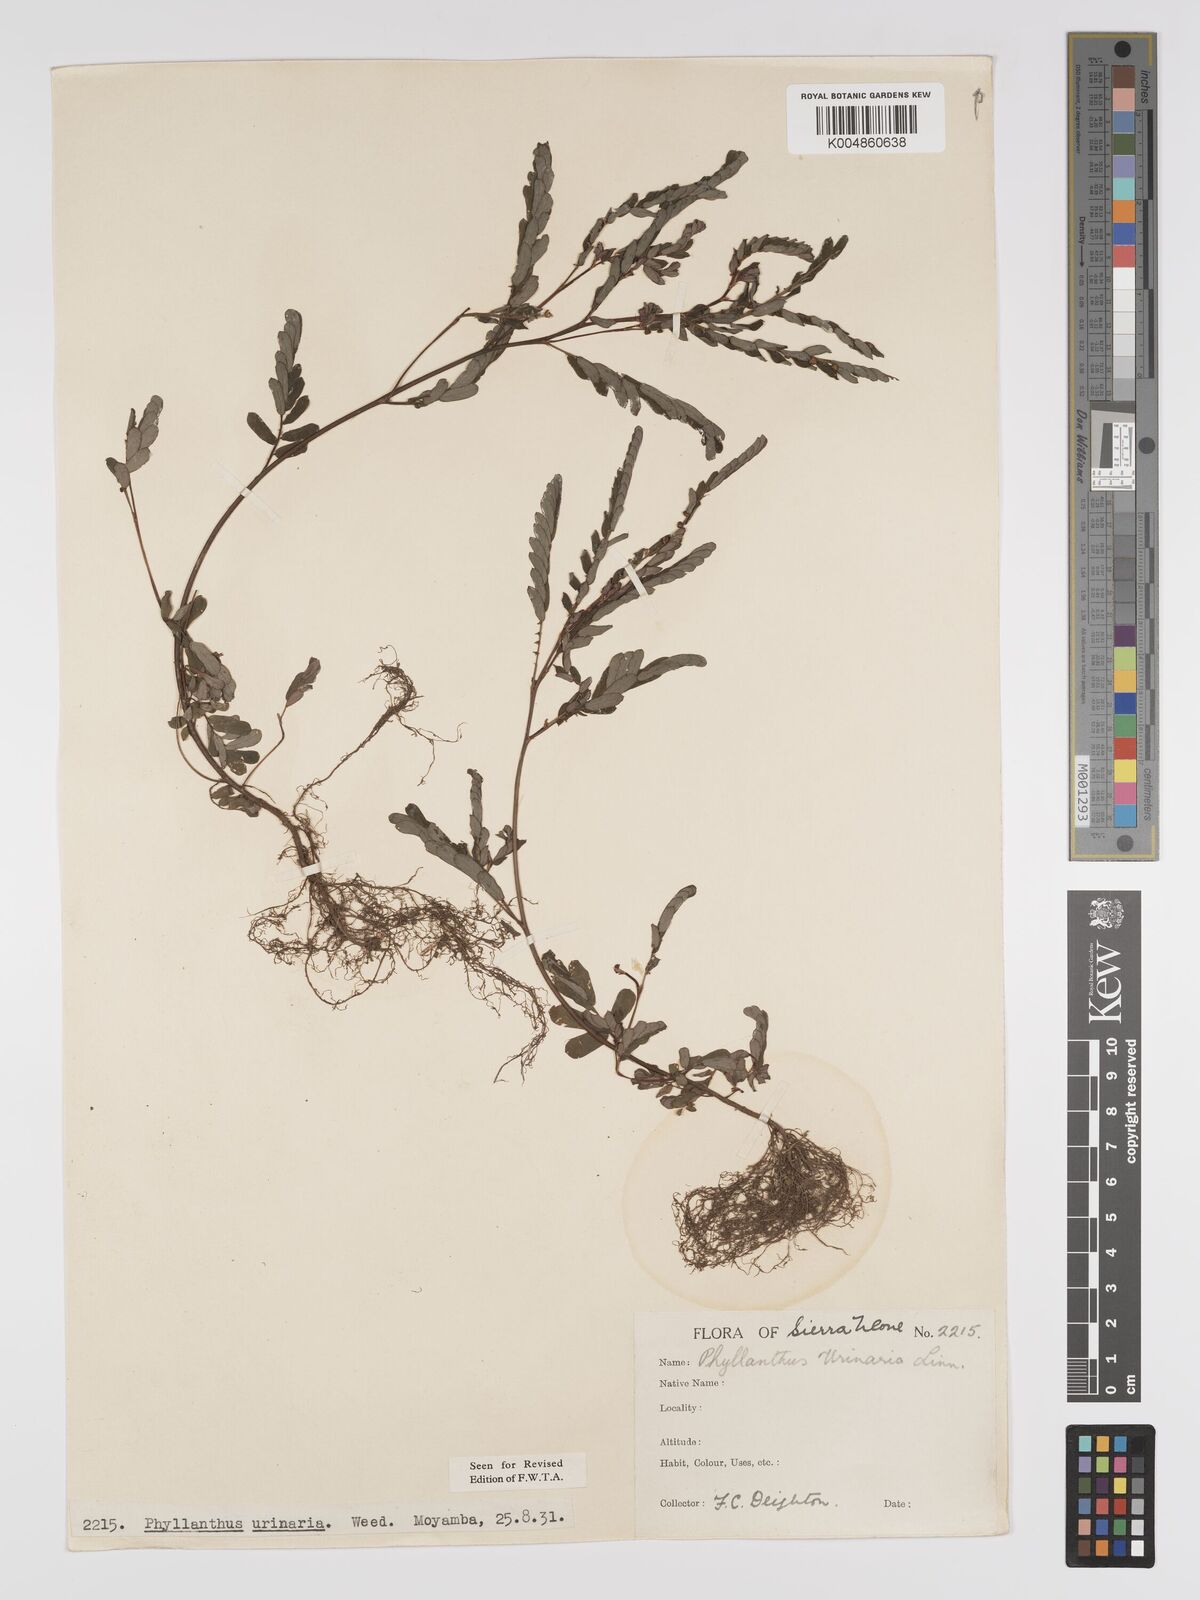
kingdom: Plantae
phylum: Tracheophyta
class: Magnoliopsida
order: Malpighiales
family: Phyllanthaceae
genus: Phyllanthus
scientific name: Phyllanthus urinaria
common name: Chamber bitter
